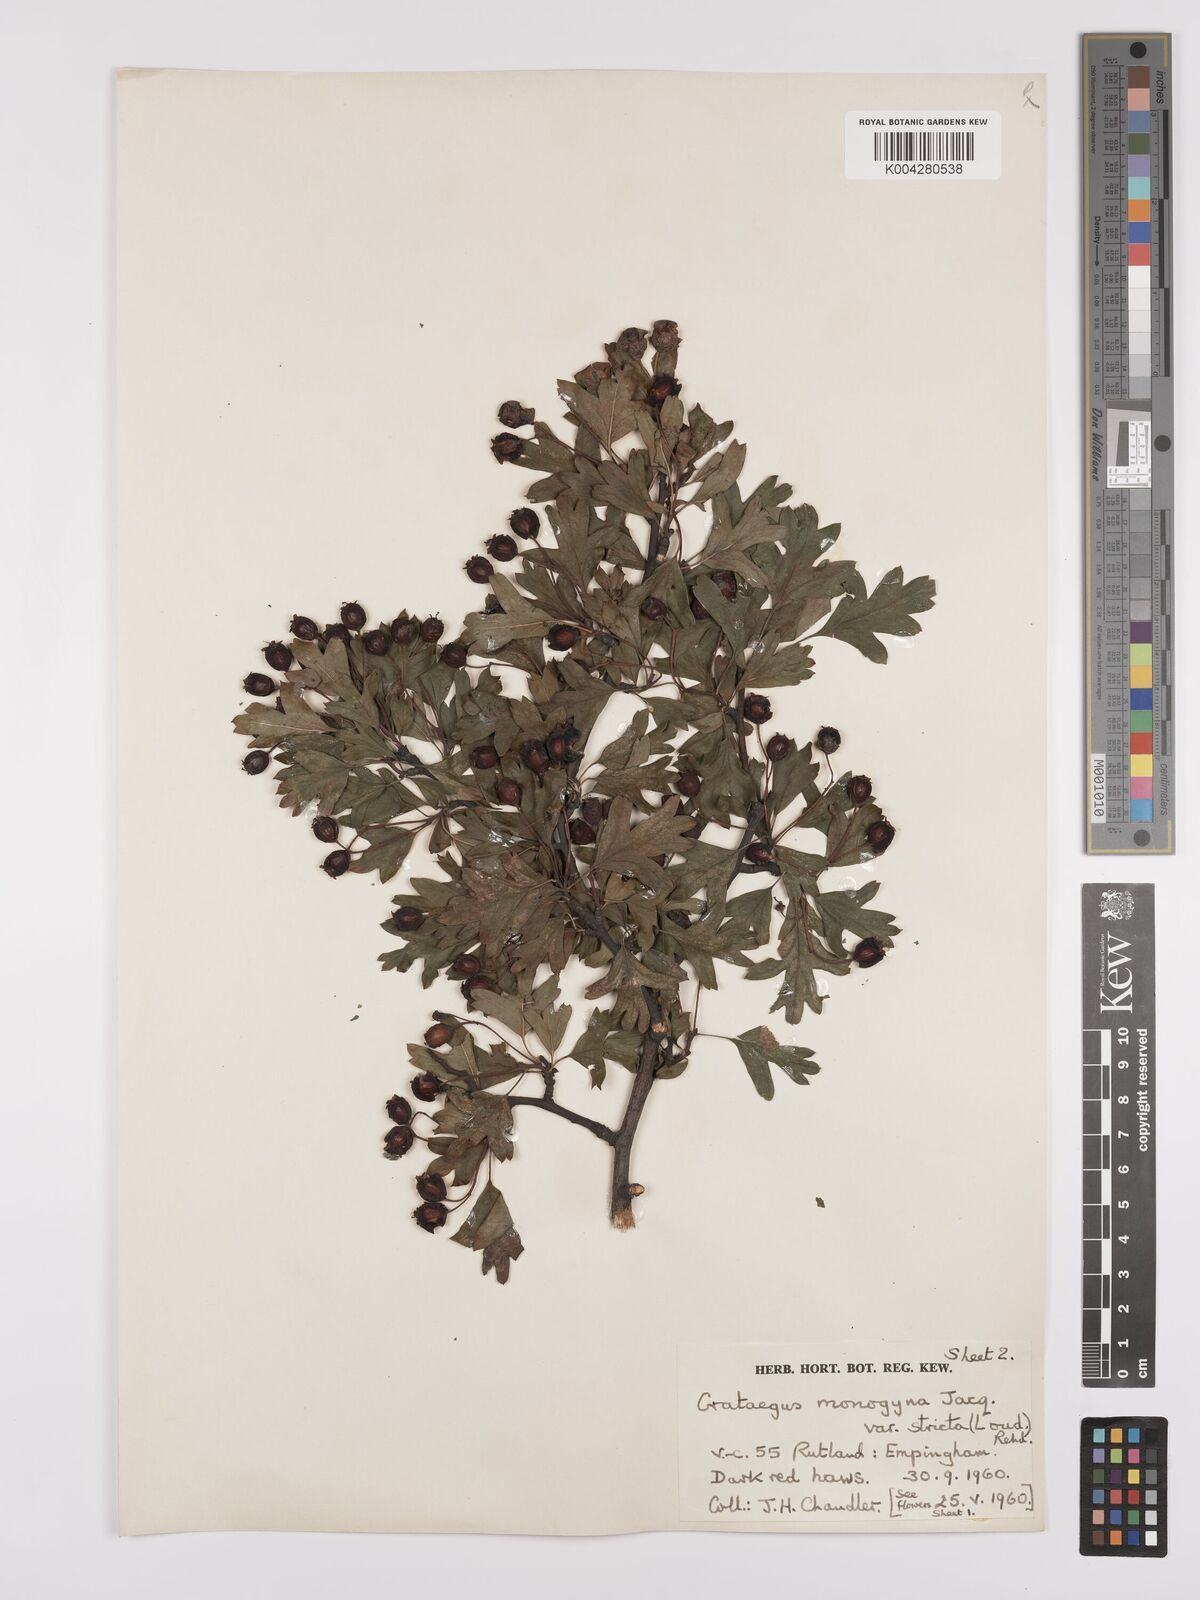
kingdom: Plantae
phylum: Tracheophyta
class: Magnoliopsida
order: Rosales
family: Rosaceae
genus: Crataegus
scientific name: Crataegus monogyna
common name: Hawthorn
